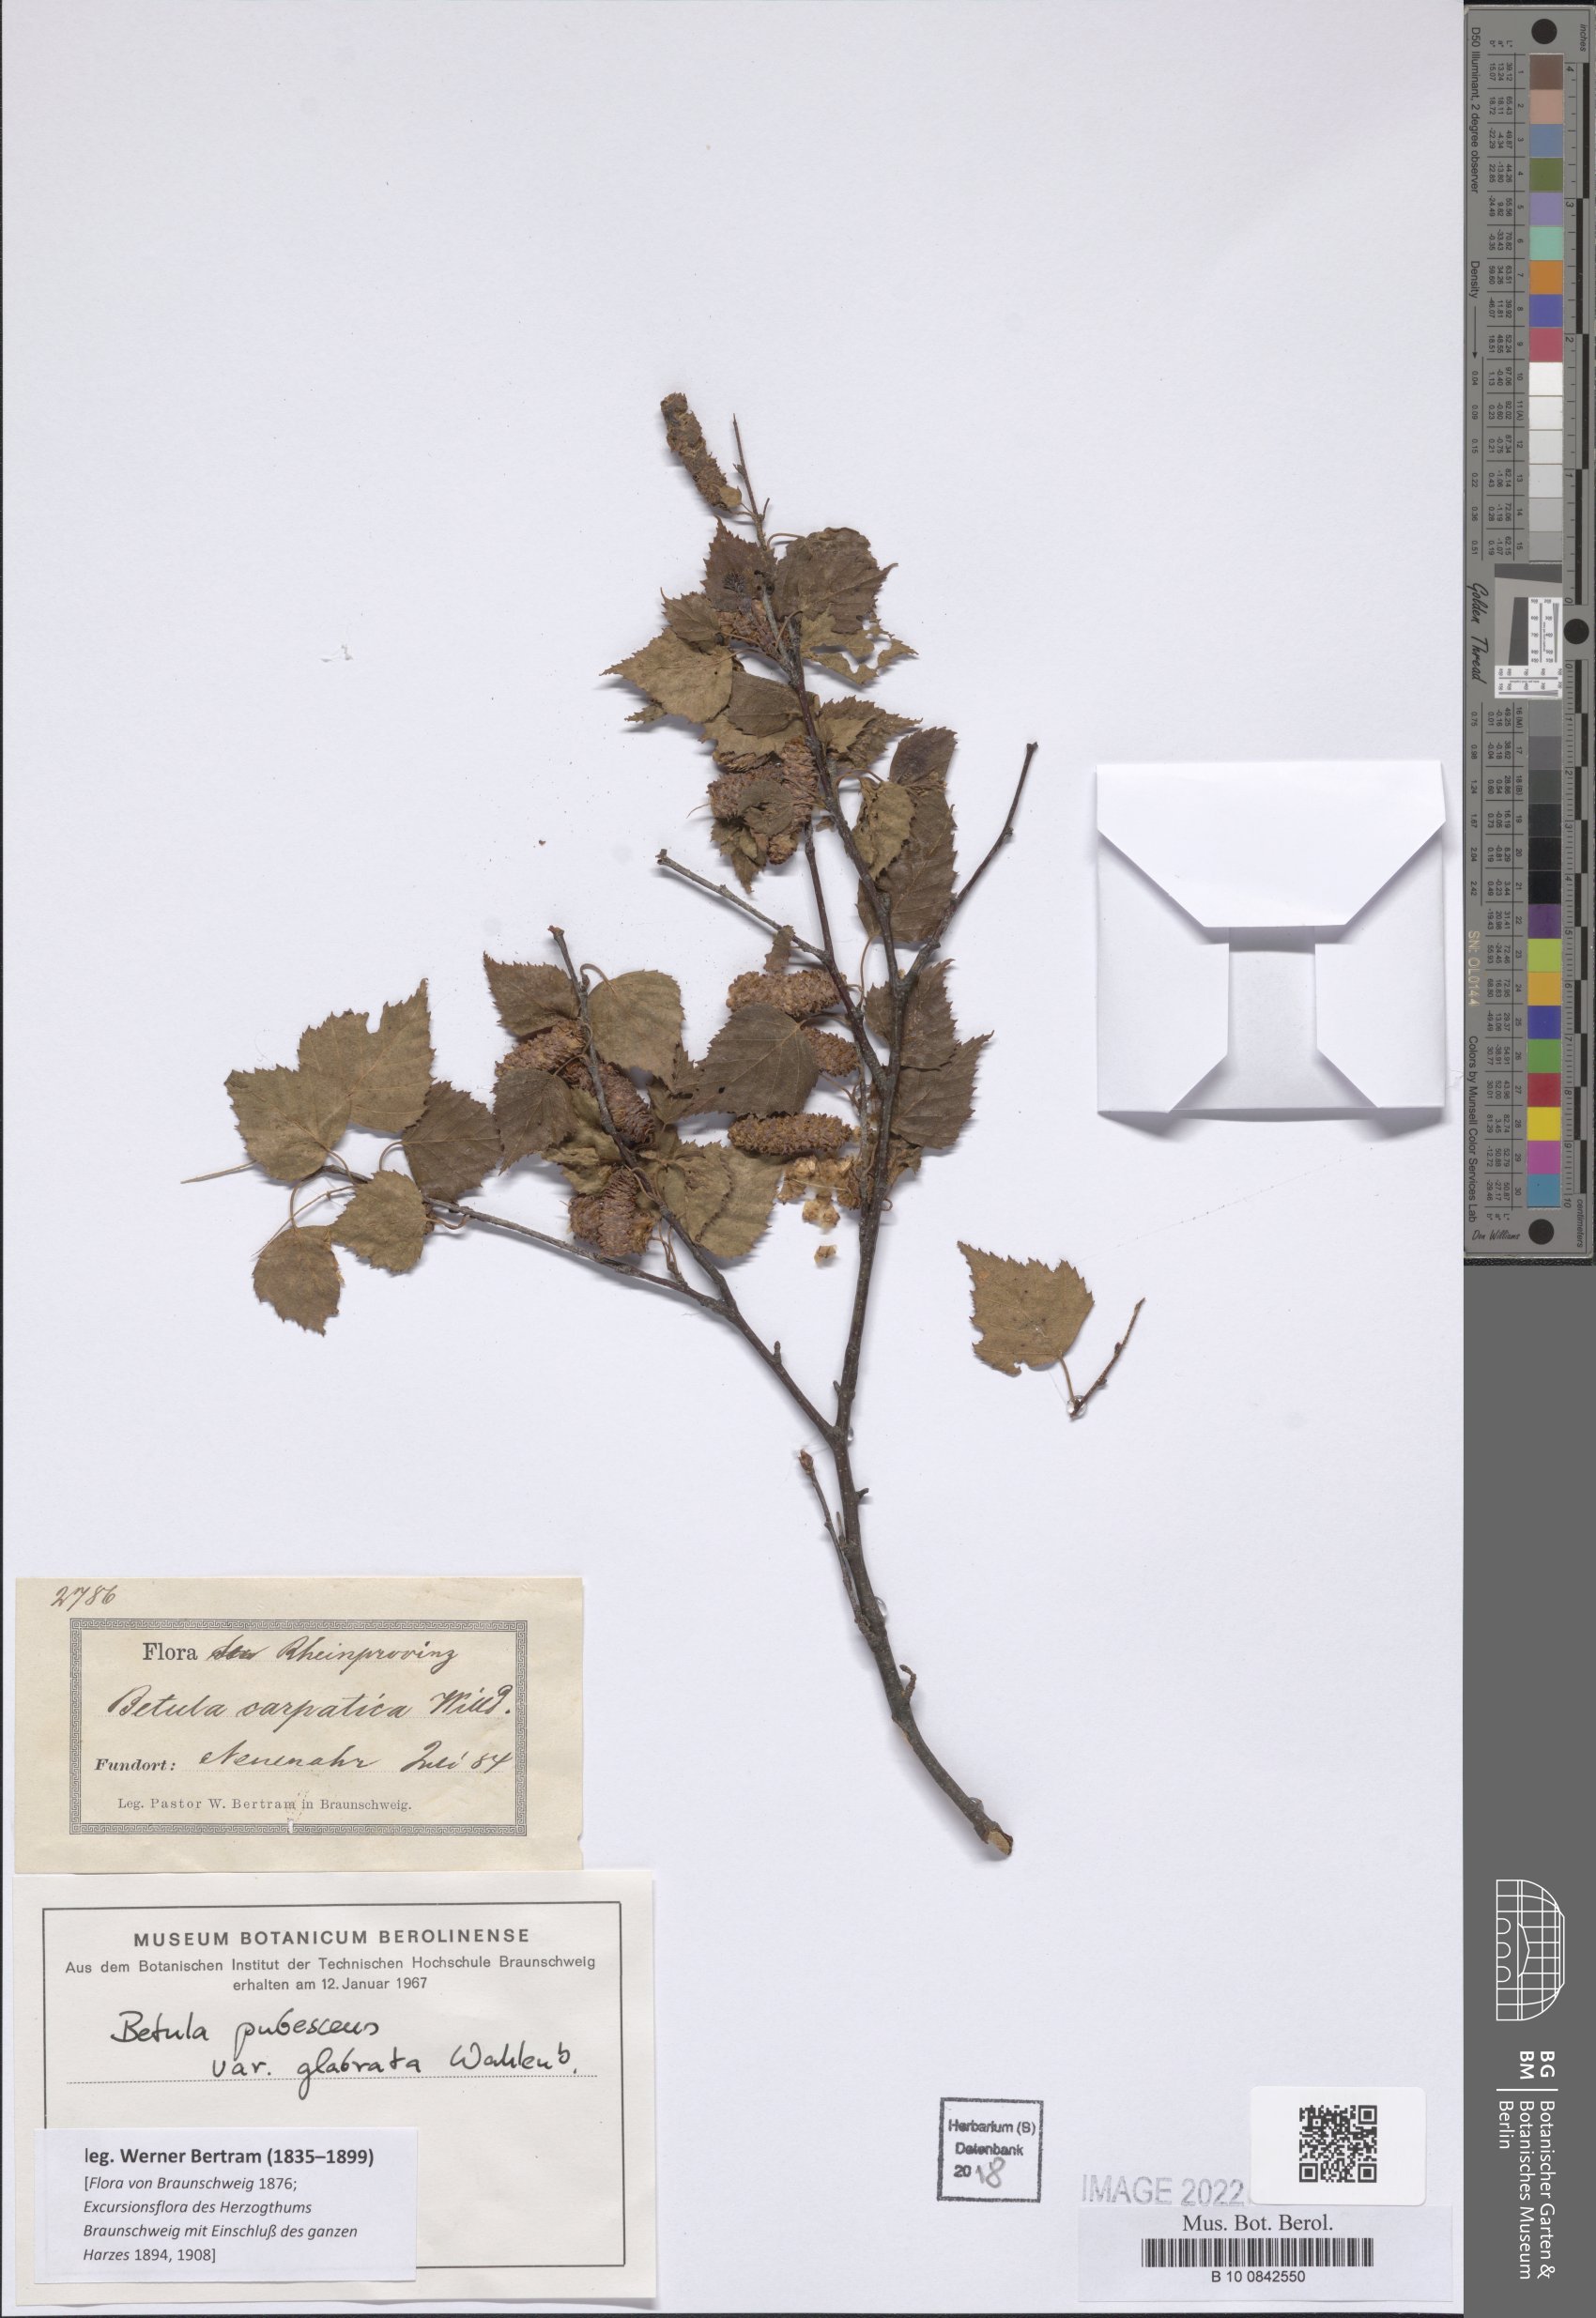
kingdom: Plantae
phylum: Tracheophyta
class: Magnoliopsida
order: Fagales
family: Betulaceae
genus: Betula
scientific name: Betula pubescens
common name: Downy birch
